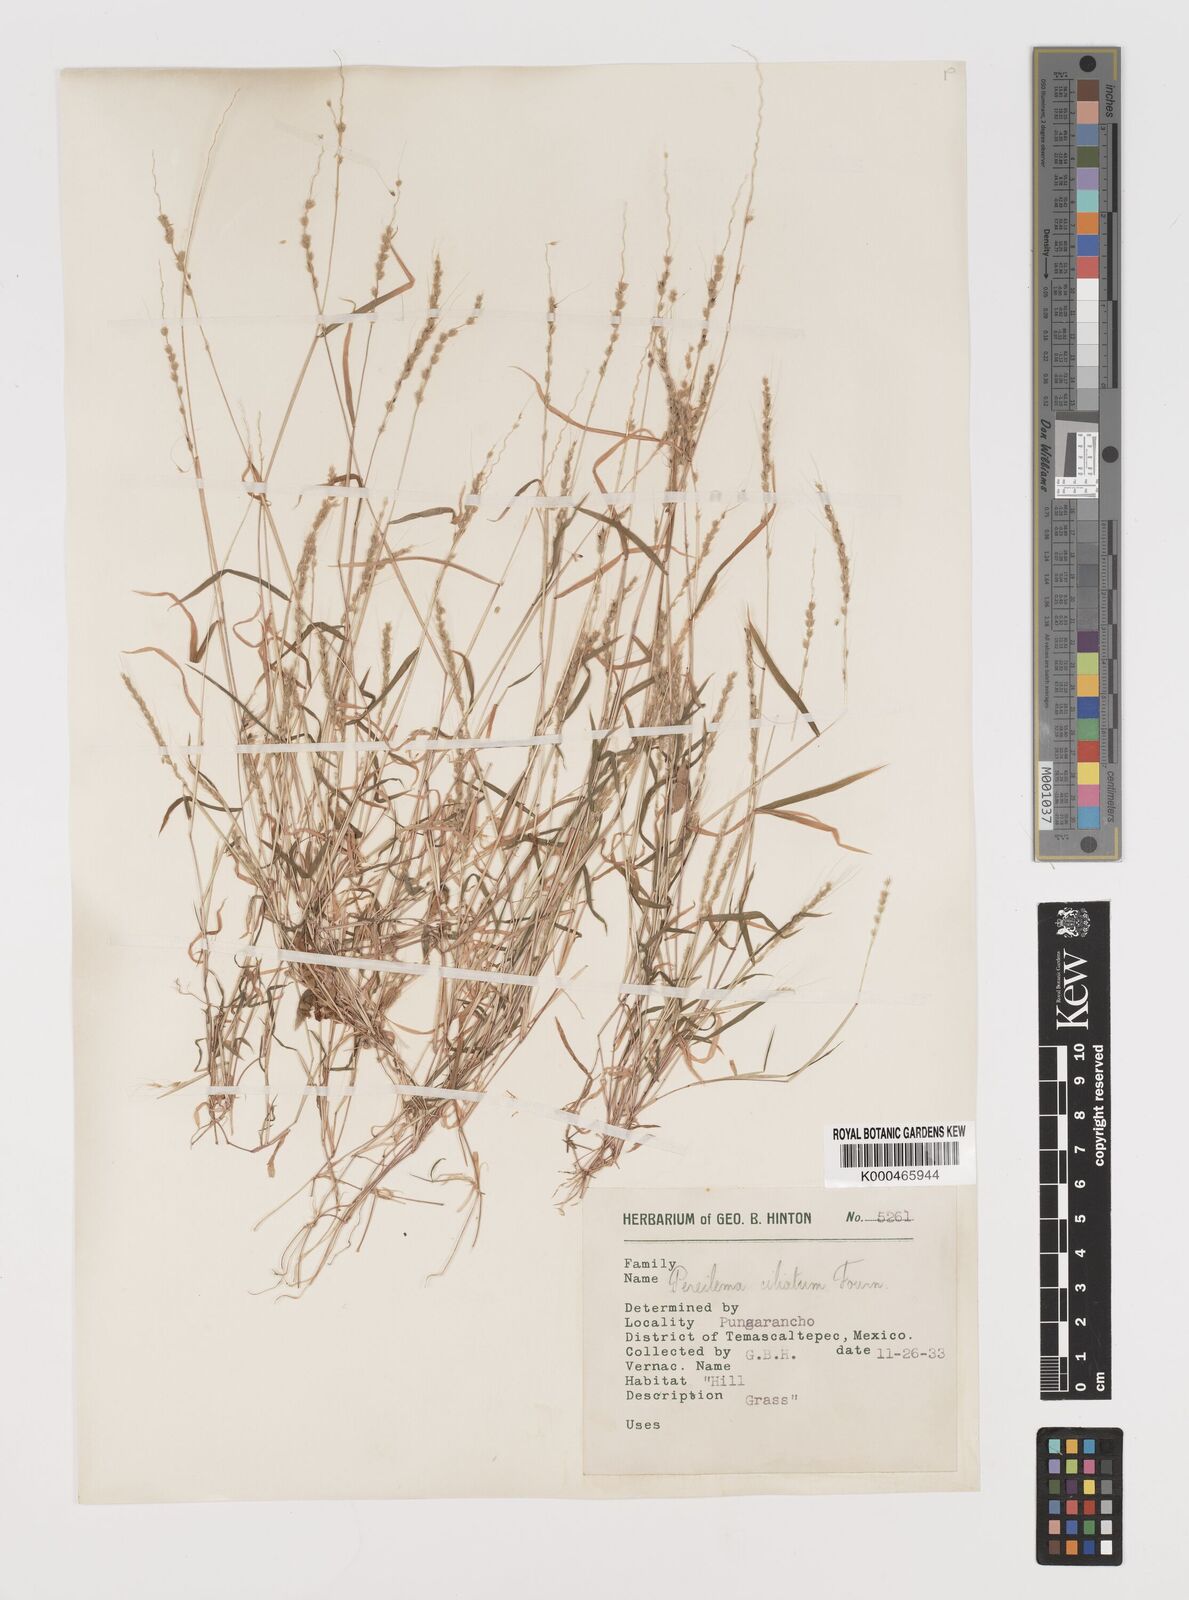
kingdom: Plantae
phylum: Tracheophyta
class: Liliopsida
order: Poales
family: Poaceae
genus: Muhlenbergia
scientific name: Muhlenbergia plumiseta
